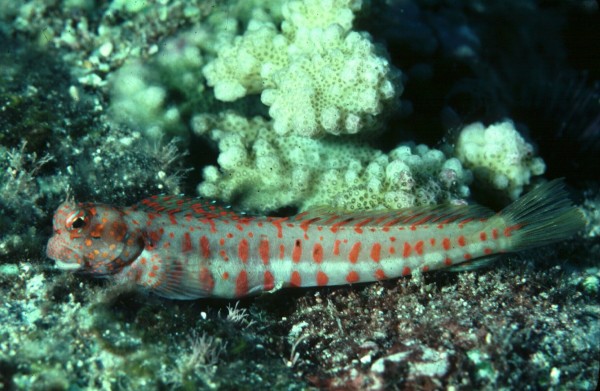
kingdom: Animalia
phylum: Chordata
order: Perciformes
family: Blenniidae
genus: Blenniella
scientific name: Blenniella chrysospilos
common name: Orange-spotted blenny
